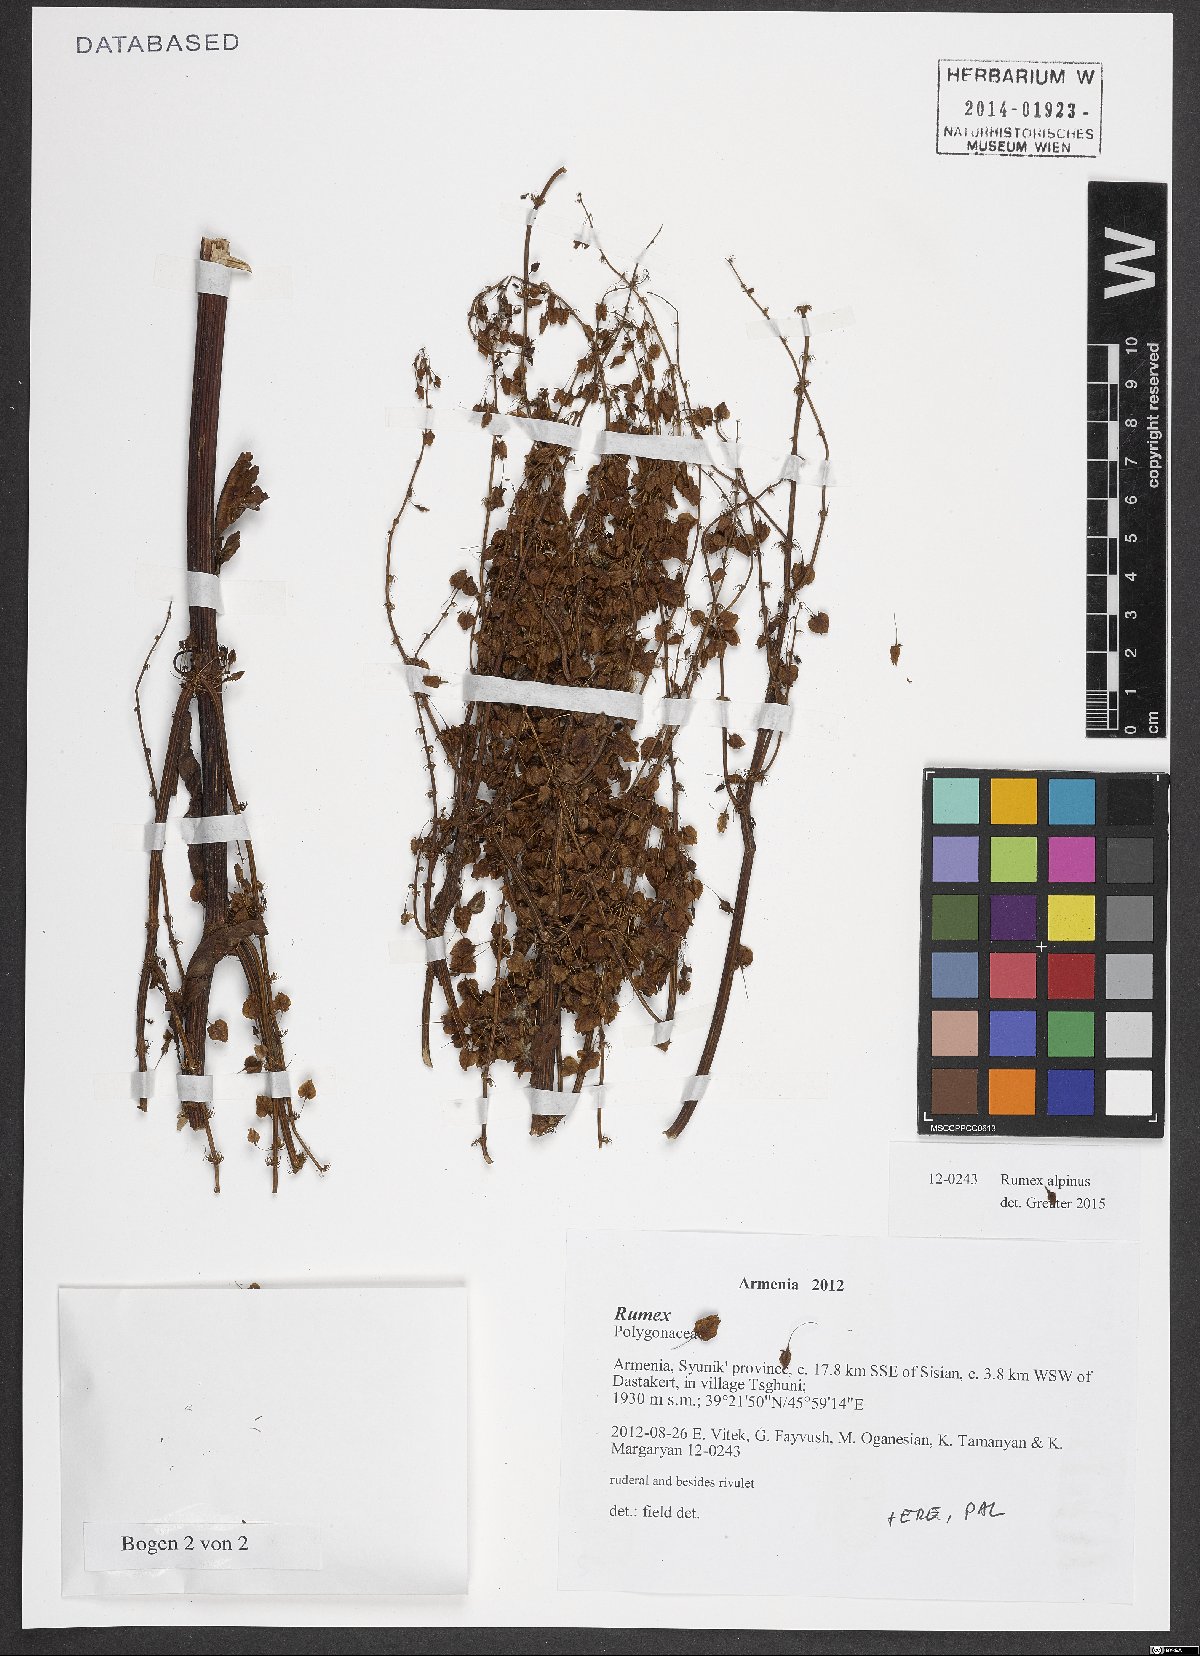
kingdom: Plantae
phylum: Tracheophyta
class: Magnoliopsida
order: Caryophyllales
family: Polygonaceae
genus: Rumex
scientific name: Rumex alpinus
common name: Alpine dock
